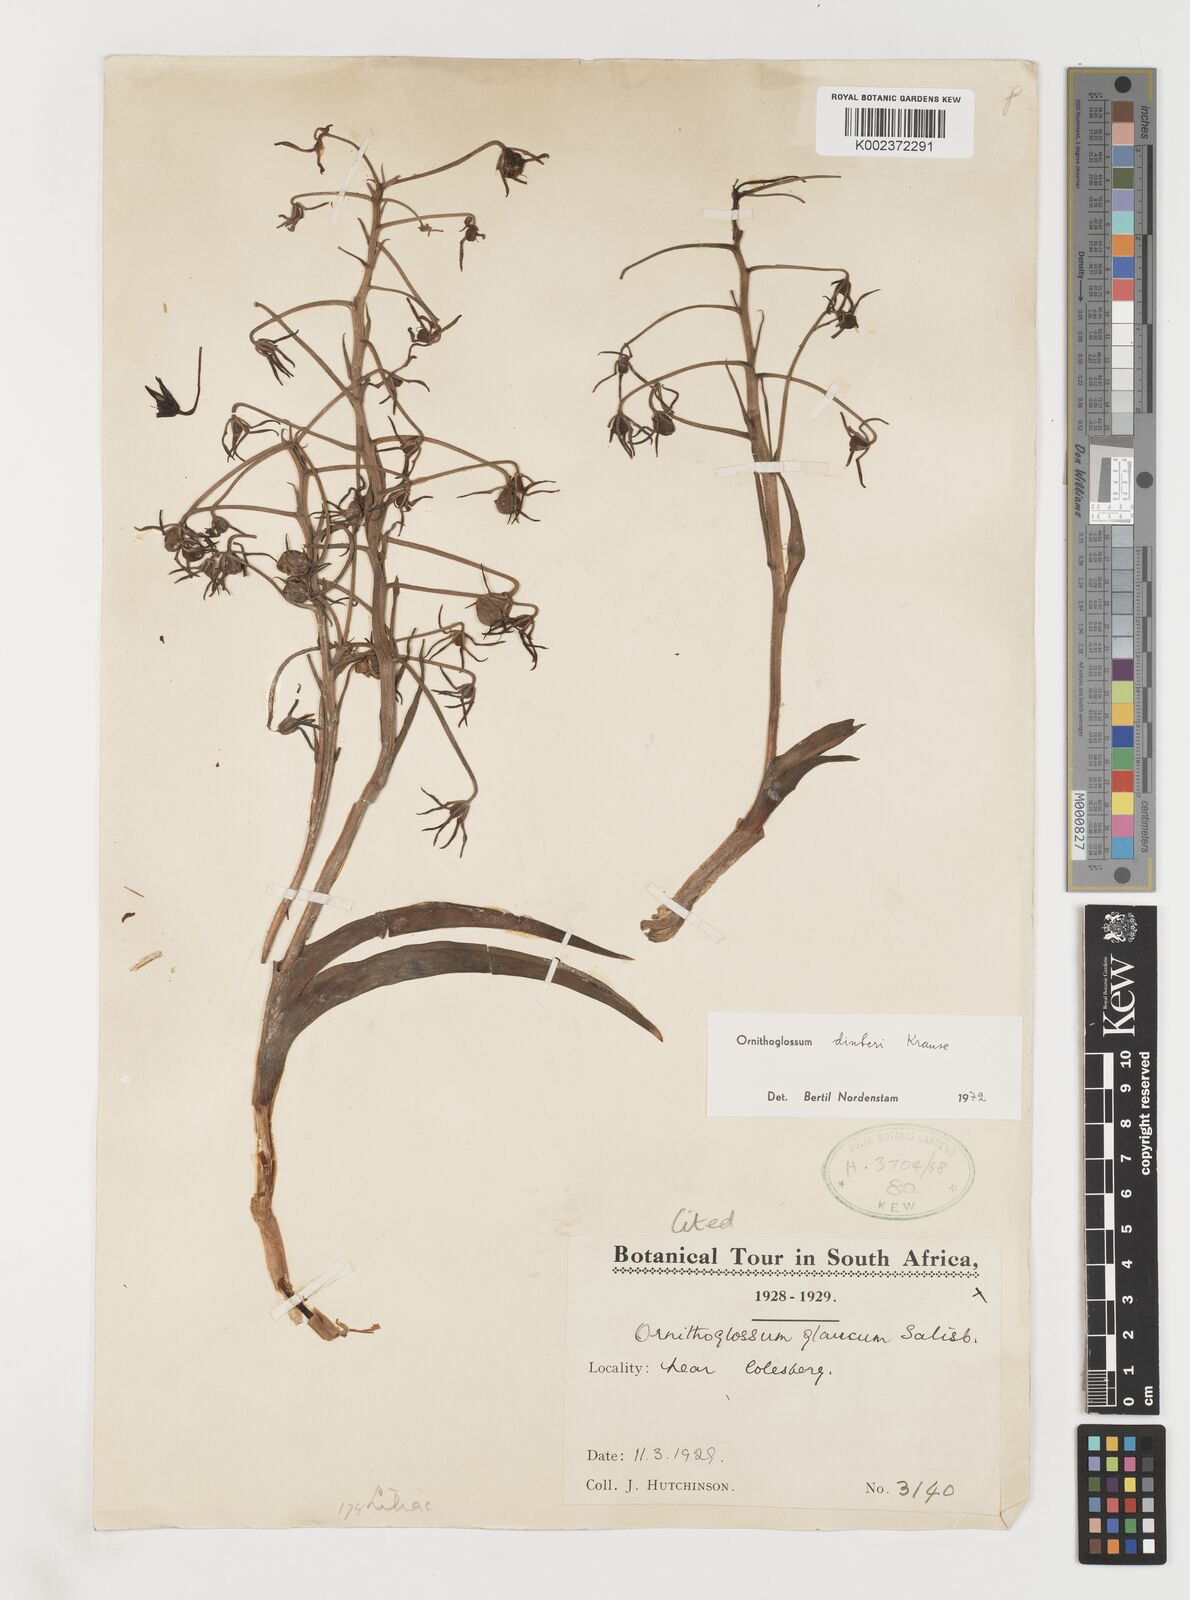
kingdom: Plantae
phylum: Tracheophyta
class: Liliopsida
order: Liliales
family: Colchicaceae
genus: Ornithoglossum
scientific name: Ornithoglossum dinteri
